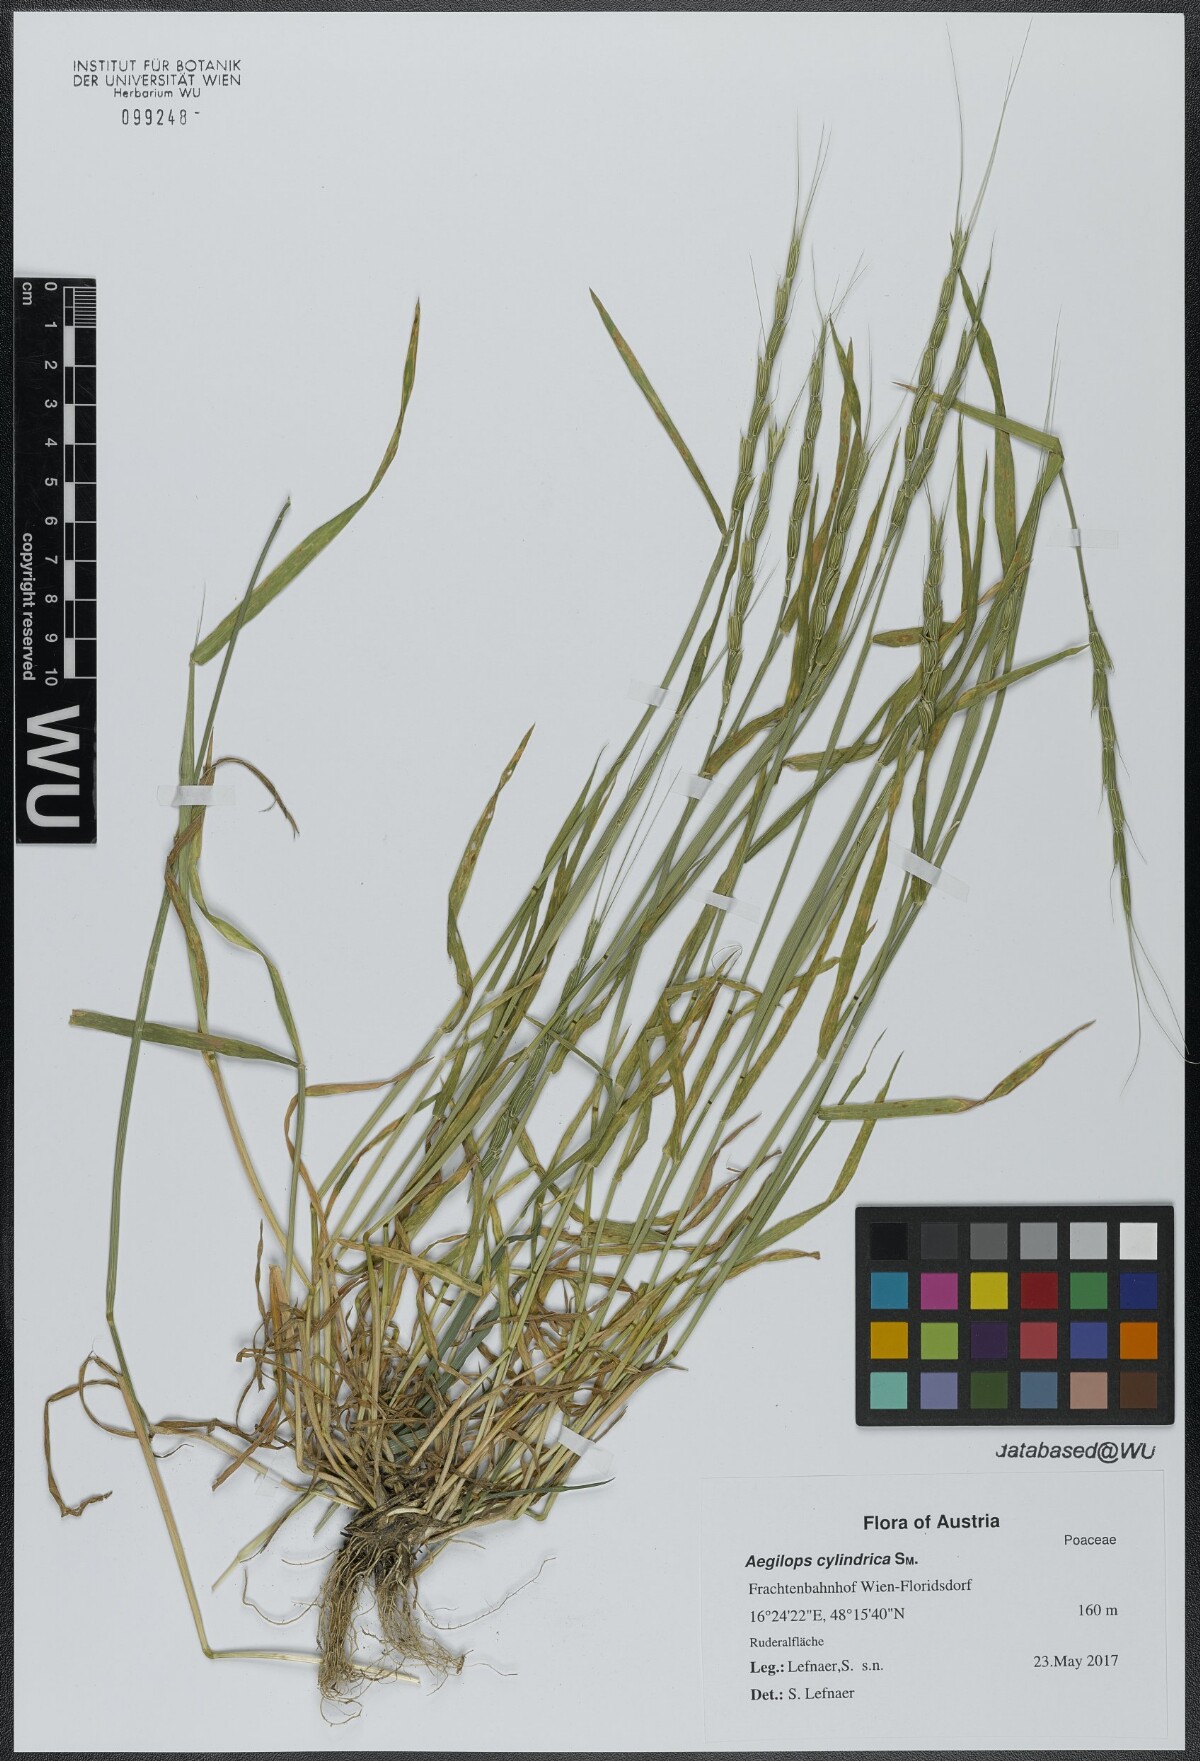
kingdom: Plantae
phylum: Tracheophyta
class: Liliopsida
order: Poales
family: Poaceae
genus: Aegilops
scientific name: Aegilops caudata
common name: Cretan hard-grass
